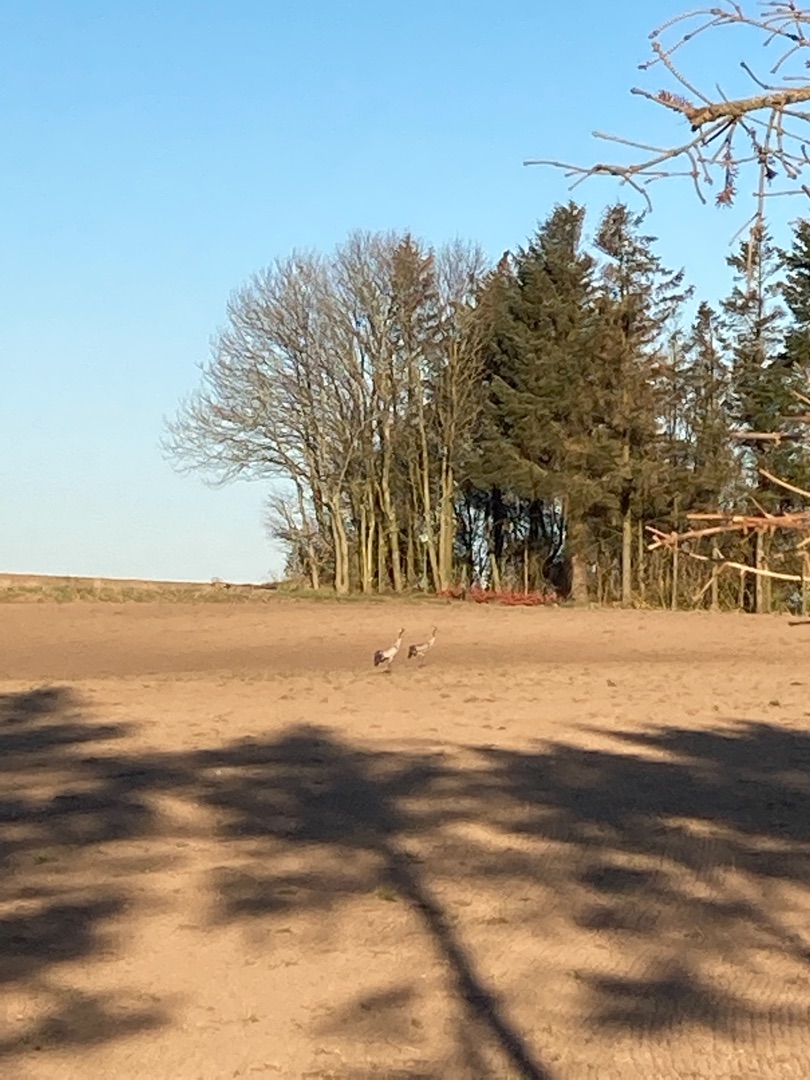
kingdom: Animalia
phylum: Chordata
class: Aves
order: Gruiformes
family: Gruidae
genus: Grus
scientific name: Grus grus
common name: Trane
